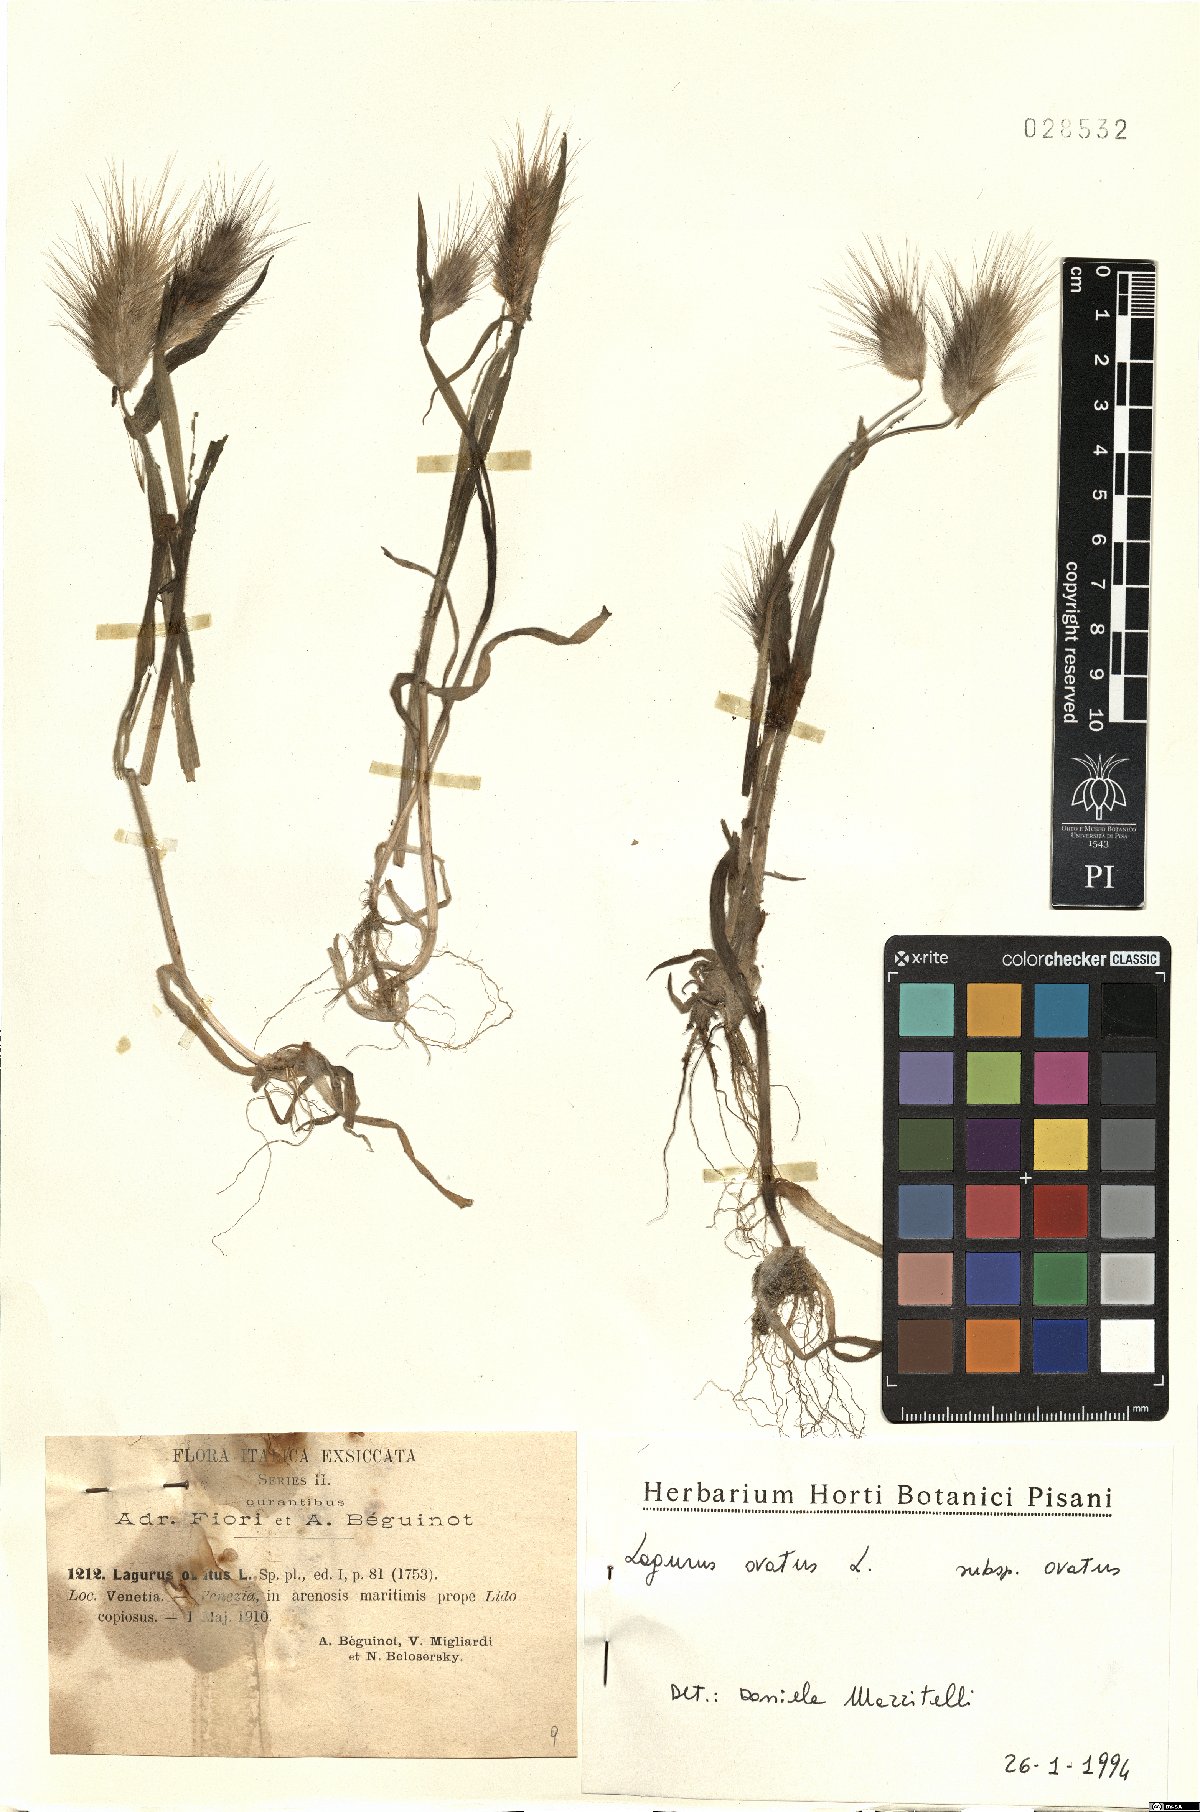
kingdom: Plantae
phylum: Tracheophyta
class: Liliopsida
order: Poales
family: Poaceae
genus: Lagurus
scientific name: Lagurus ovatus
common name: Hare's-tail
